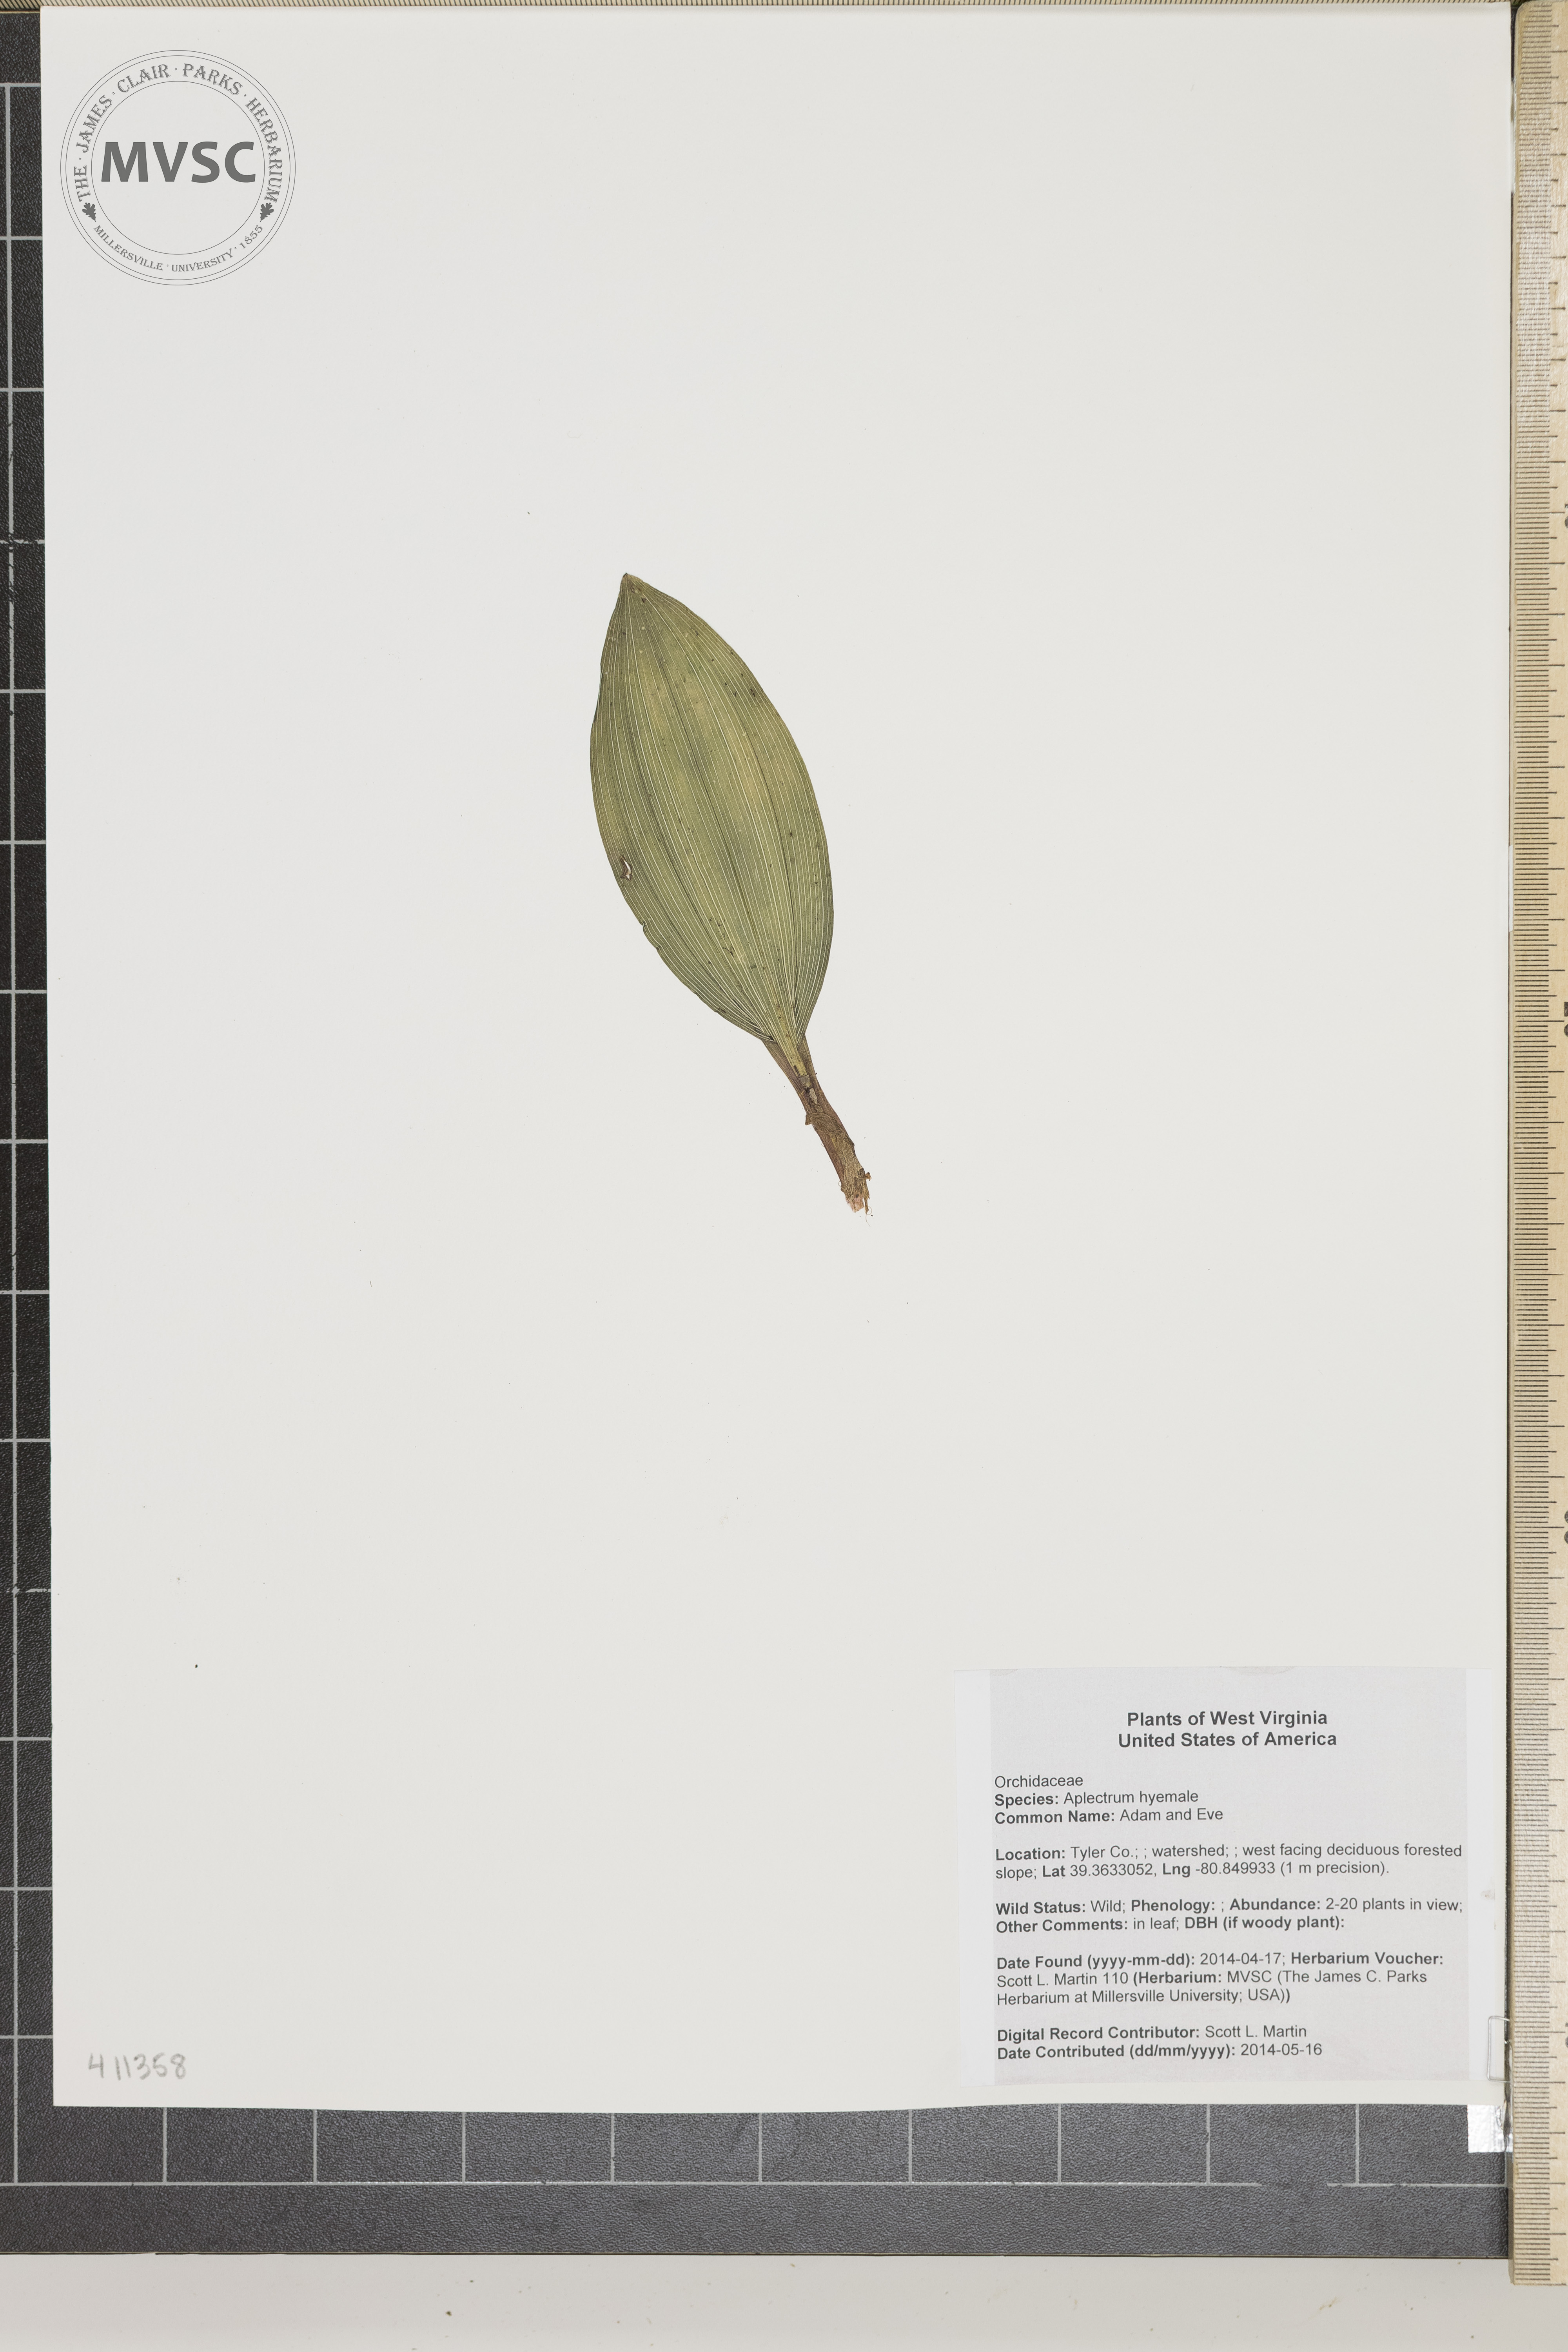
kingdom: Plantae
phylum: Tracheophyta
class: Liliopsida
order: Asparagales
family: Orchidaceae
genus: Aplectrum
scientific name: Aplectrum hyemale
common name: Adam and Eve
